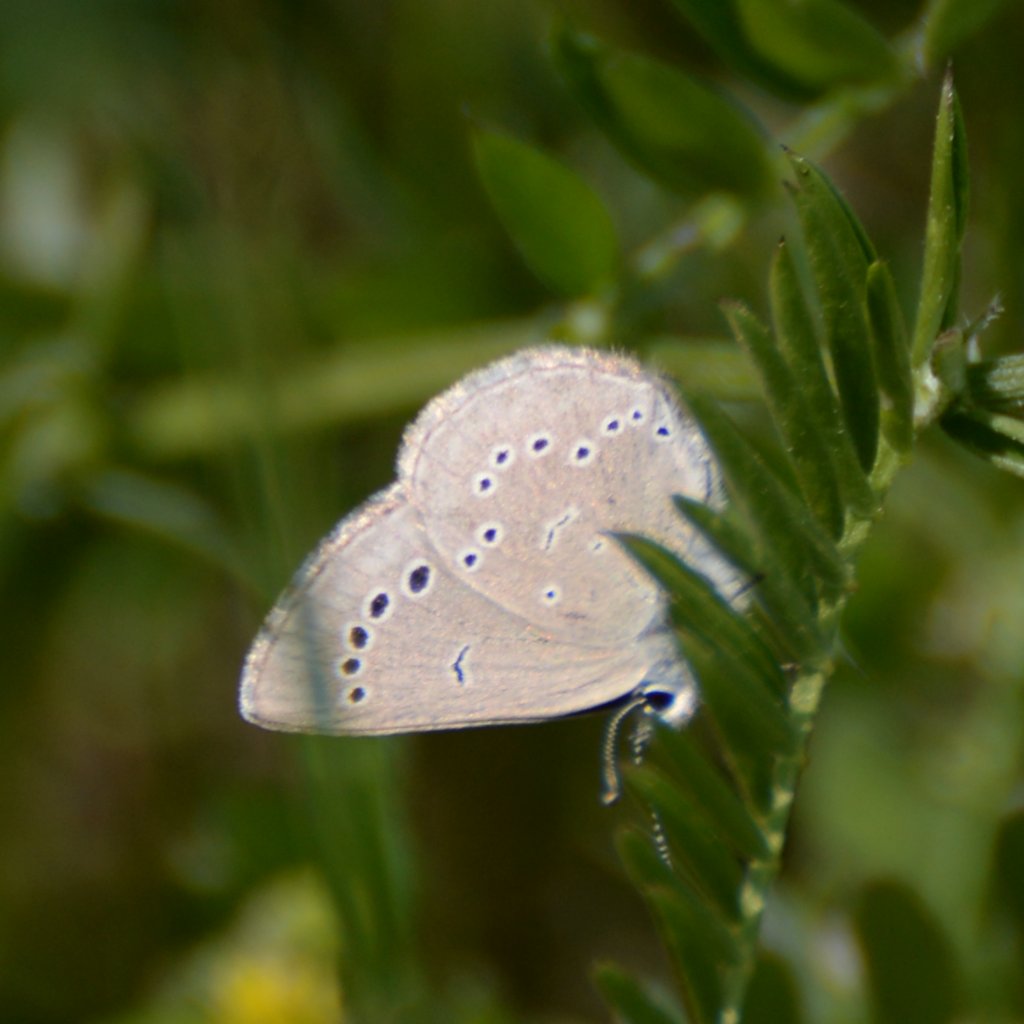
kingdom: Animalia
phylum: Arthropoda
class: Insecta
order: Lepidoptera
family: Lycaenidae
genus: Glaucopsyche
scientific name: Glaucopsyche lygdamus
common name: Silvery Blue
